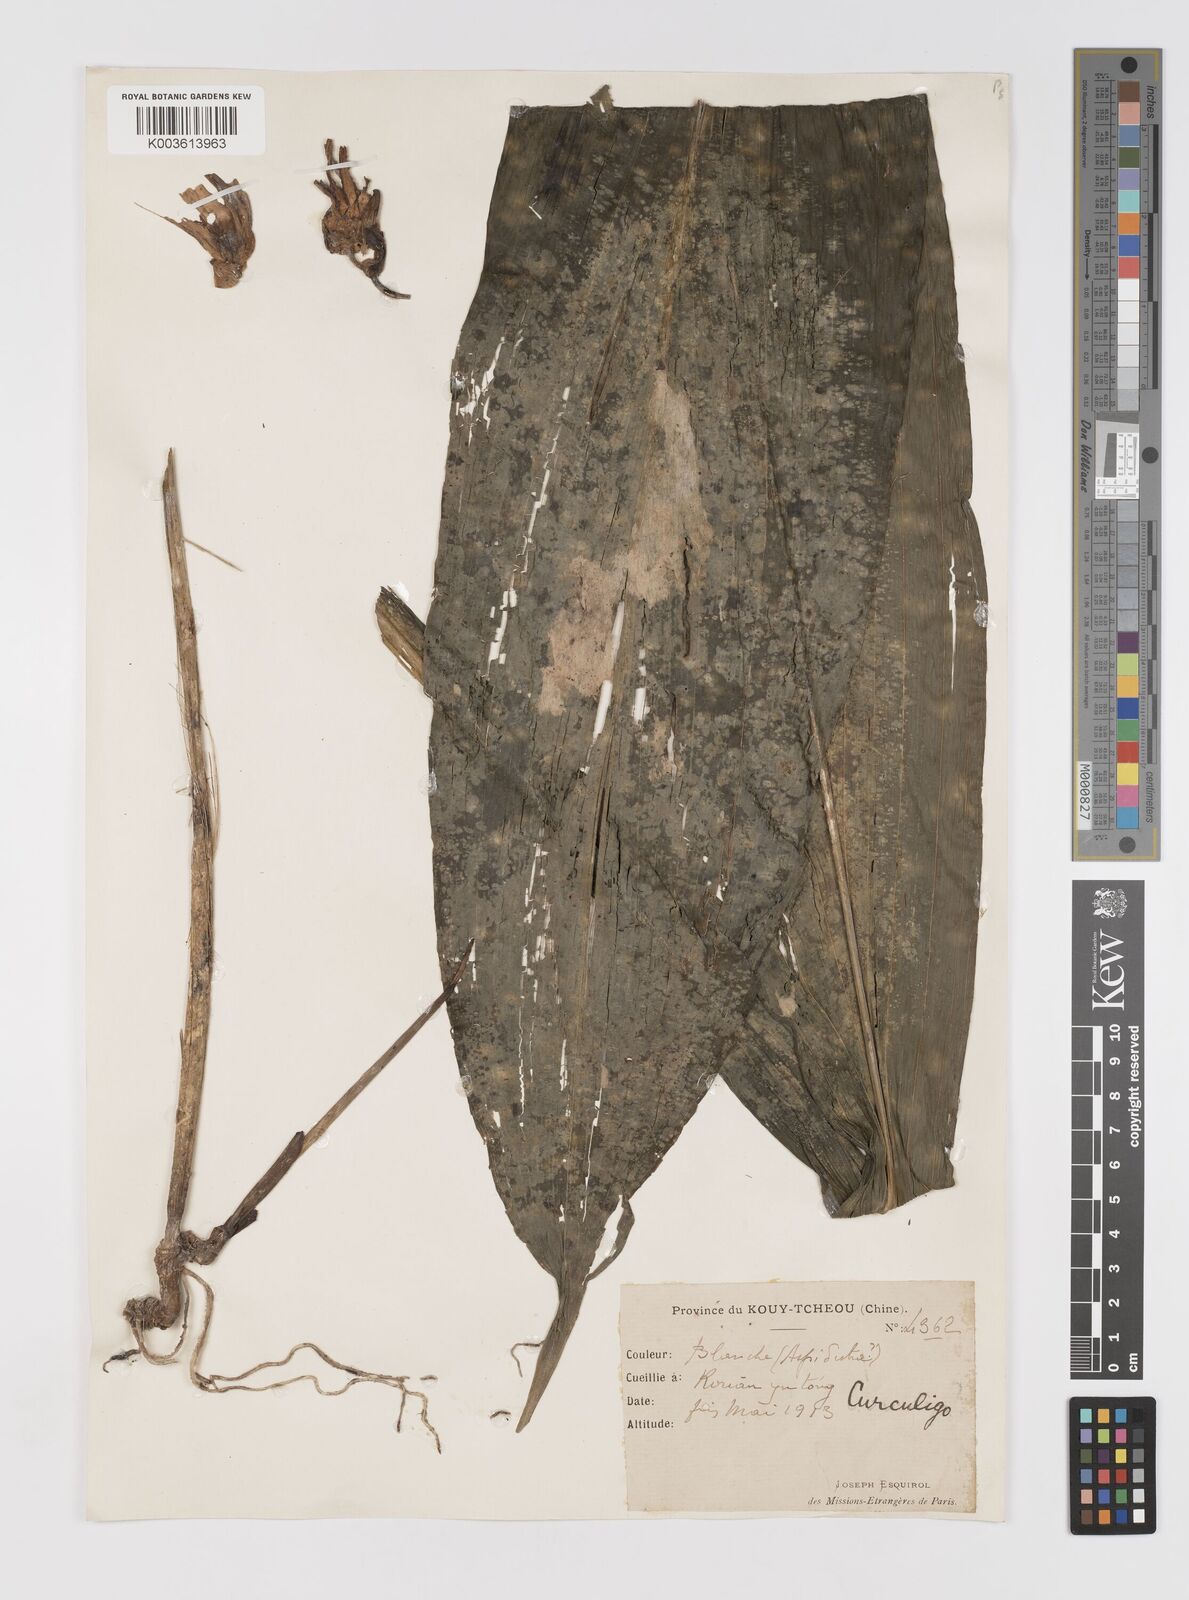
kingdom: Plantae
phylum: Tracheophyta
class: Liliopsida
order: Asparagales
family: Hypoxidaceae
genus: Curculigo
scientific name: Curculigo
